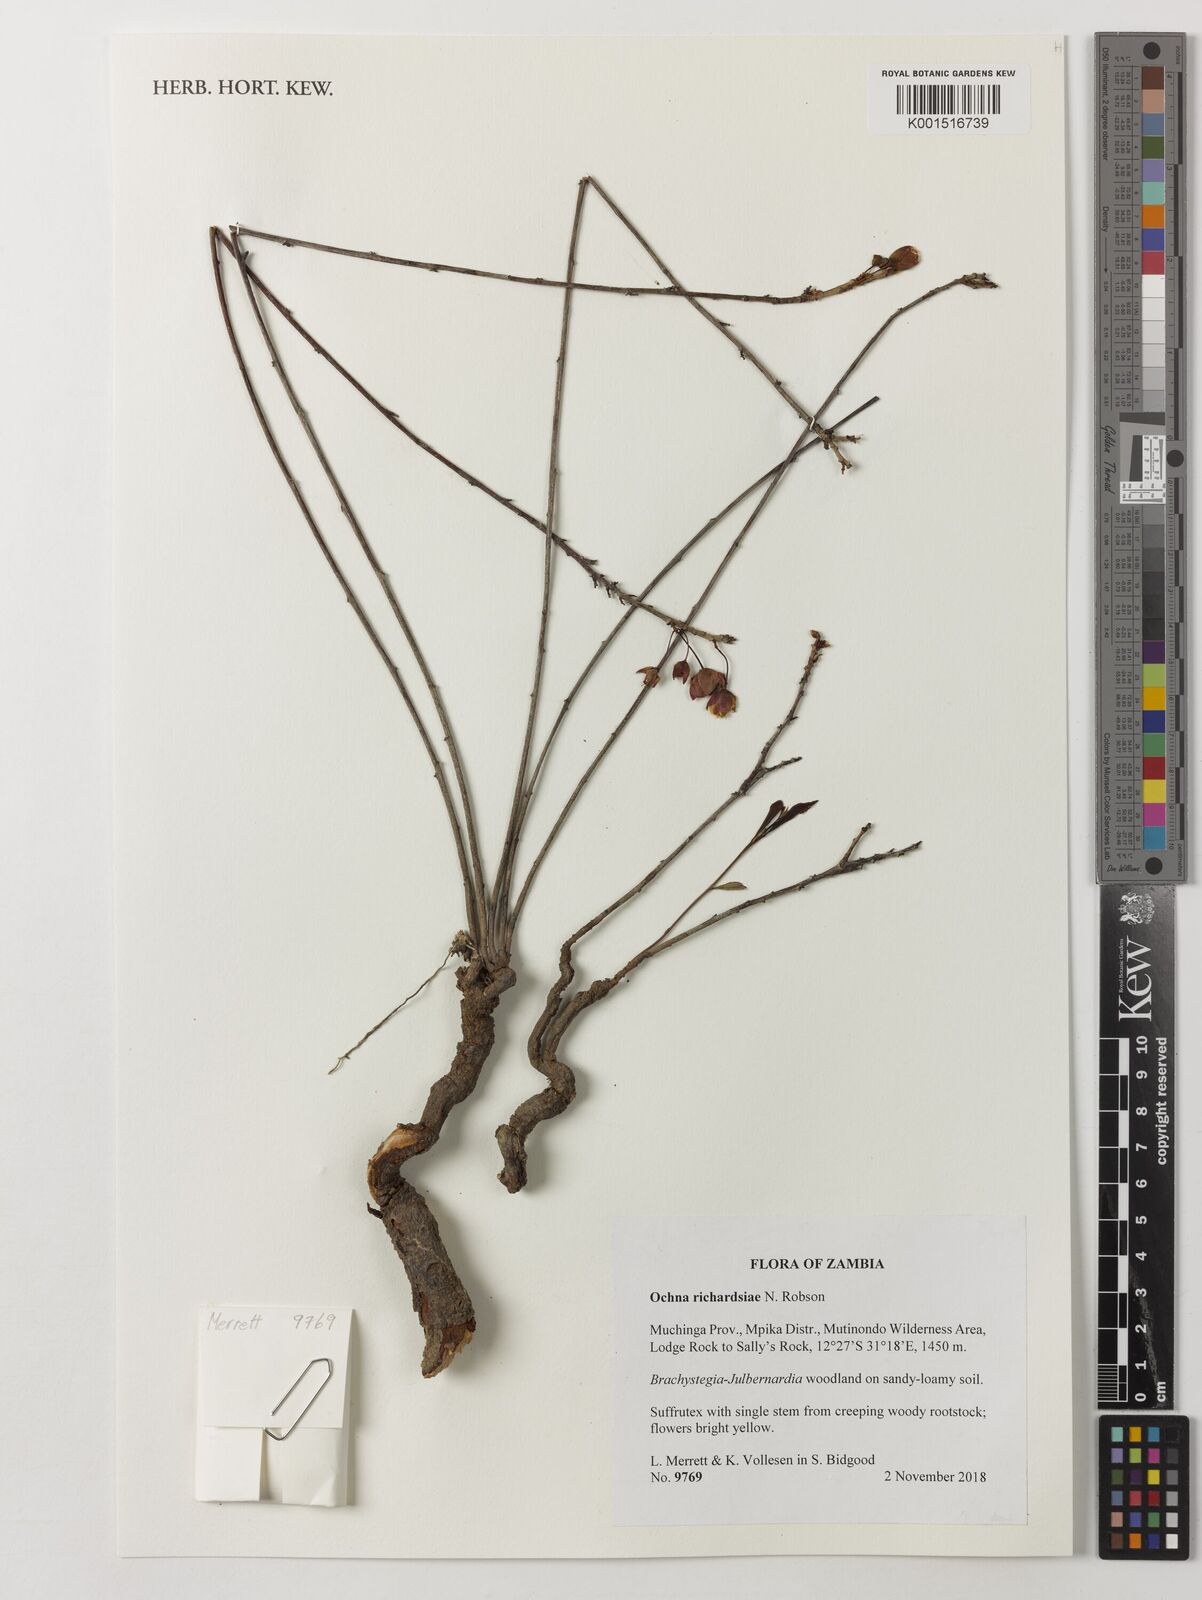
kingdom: Plantae
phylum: Tracheophyta
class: Magnoliopsida
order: Malpighiales
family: Ochnaceae
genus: Ochna
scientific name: Ochna richardsiae
